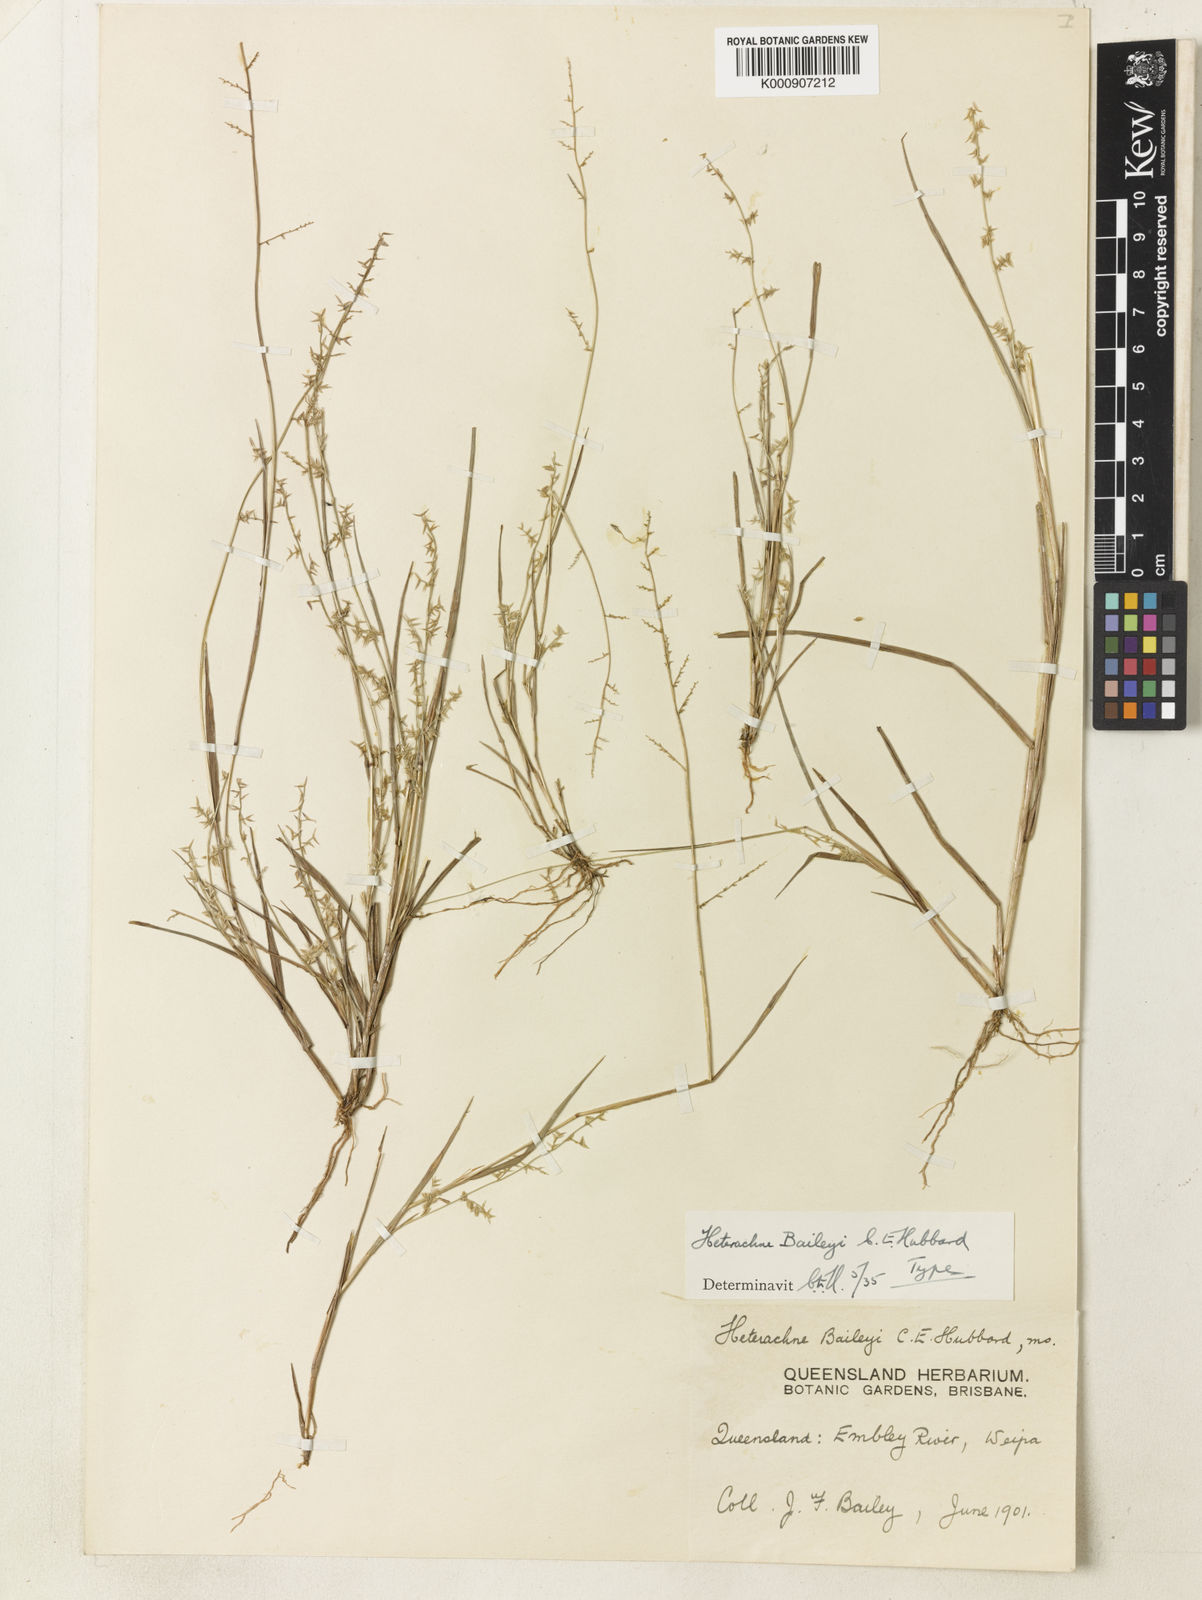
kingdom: Plantae
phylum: Tracheophyta
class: Liliopsida
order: Poales
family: Poaceae
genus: Eragrostis
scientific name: Eragrostis baileyi
